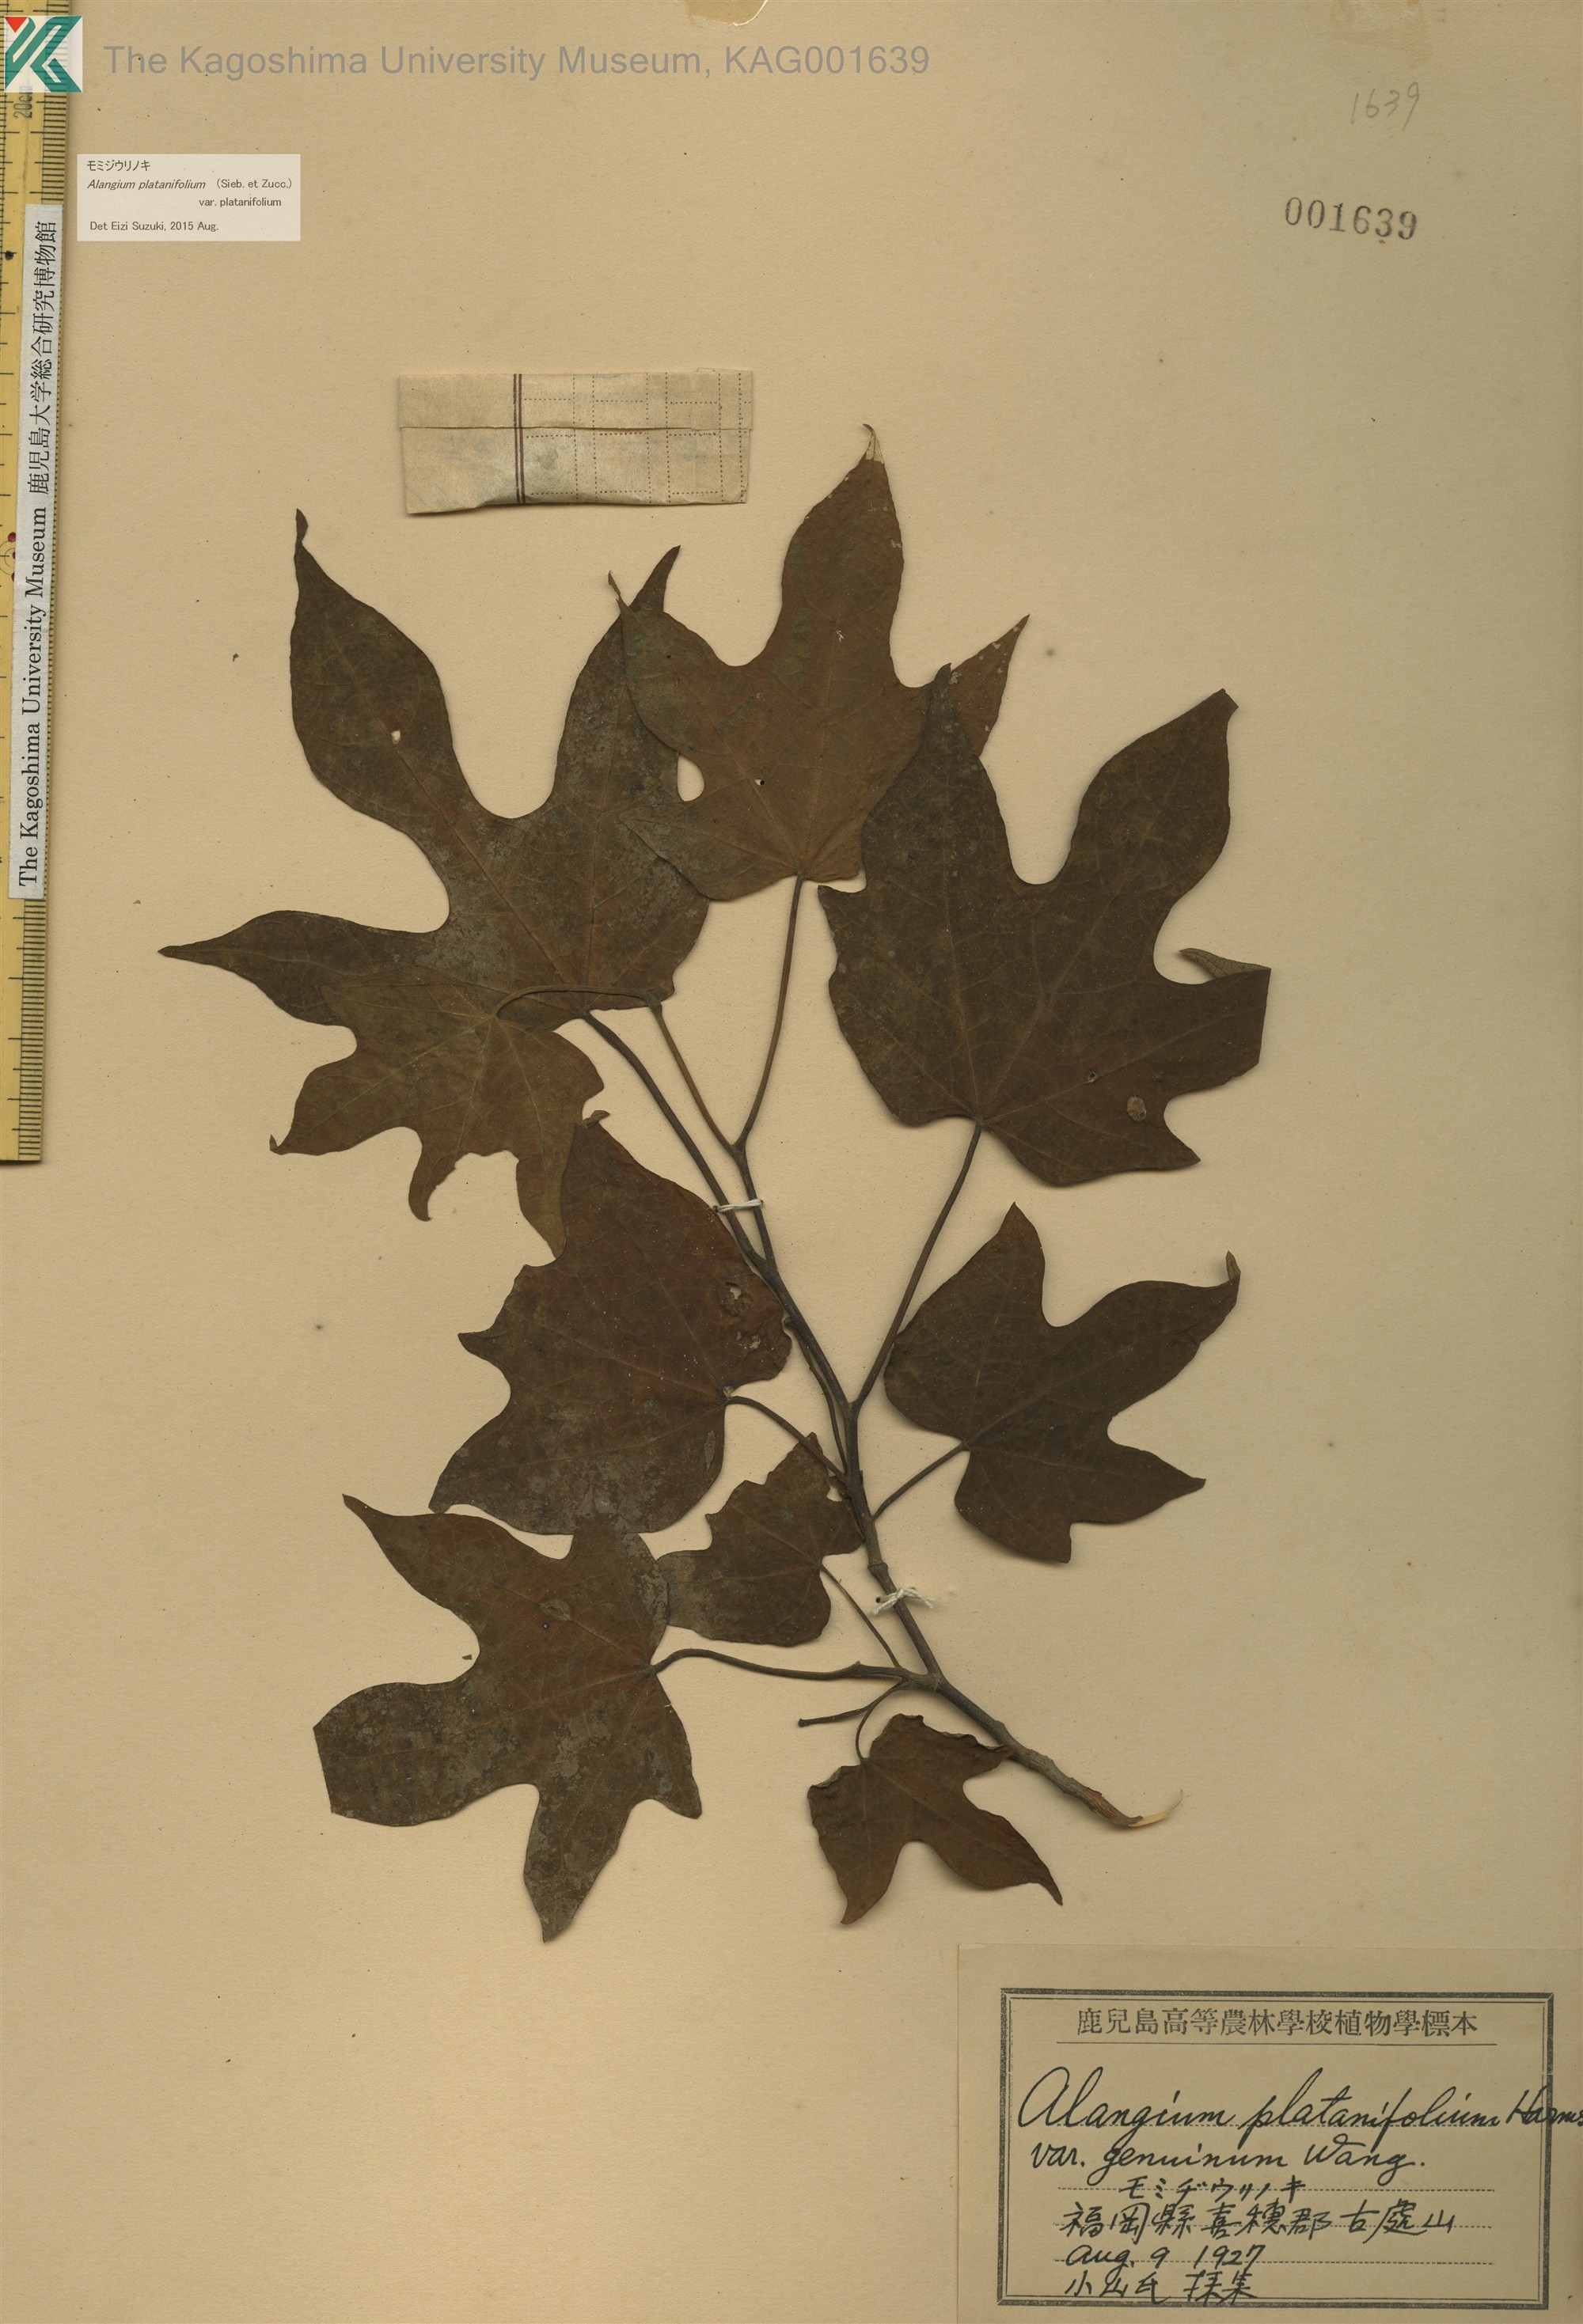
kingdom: Plantae
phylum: Tracheophyta
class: Magnoliopsida
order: Cornales
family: Cornaceae
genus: Alangium
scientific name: Alangium platanifolium
